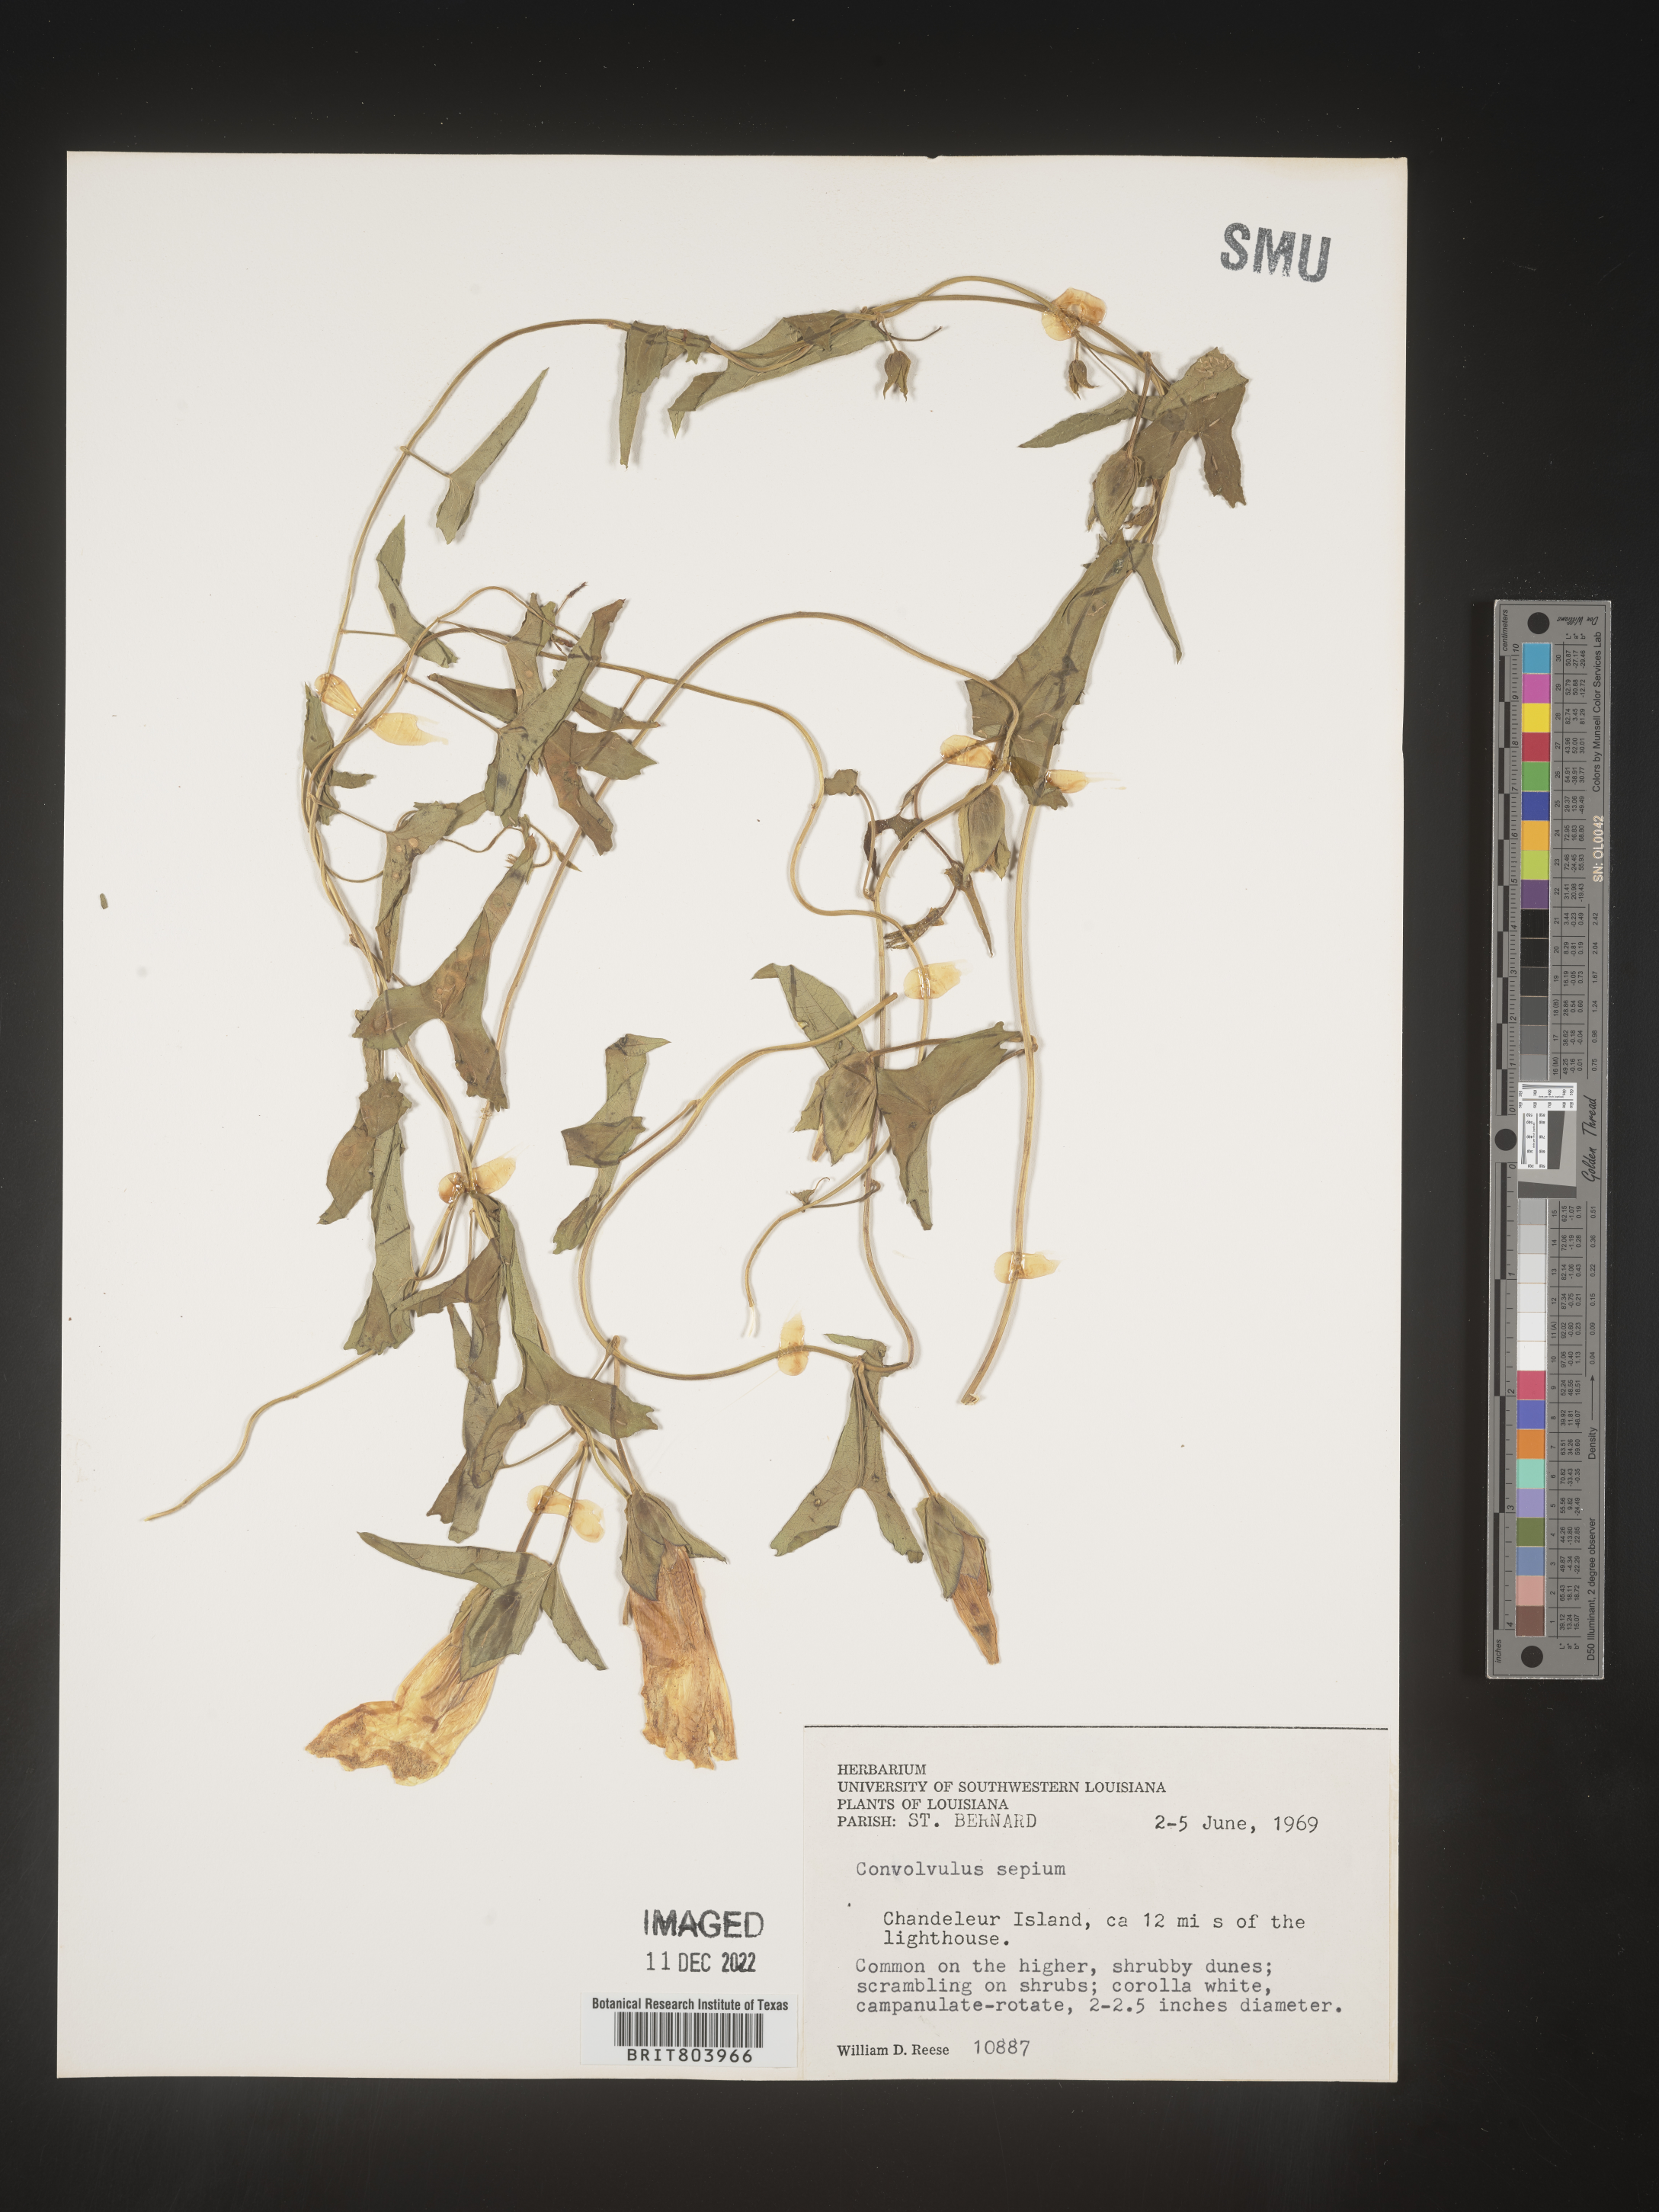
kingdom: Plantae
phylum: Tracheophyta
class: Magnoliopsida
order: Solanales
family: Convolvulaceae
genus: Calystegia
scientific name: Calystegia sepium
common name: Hedge bindweed
